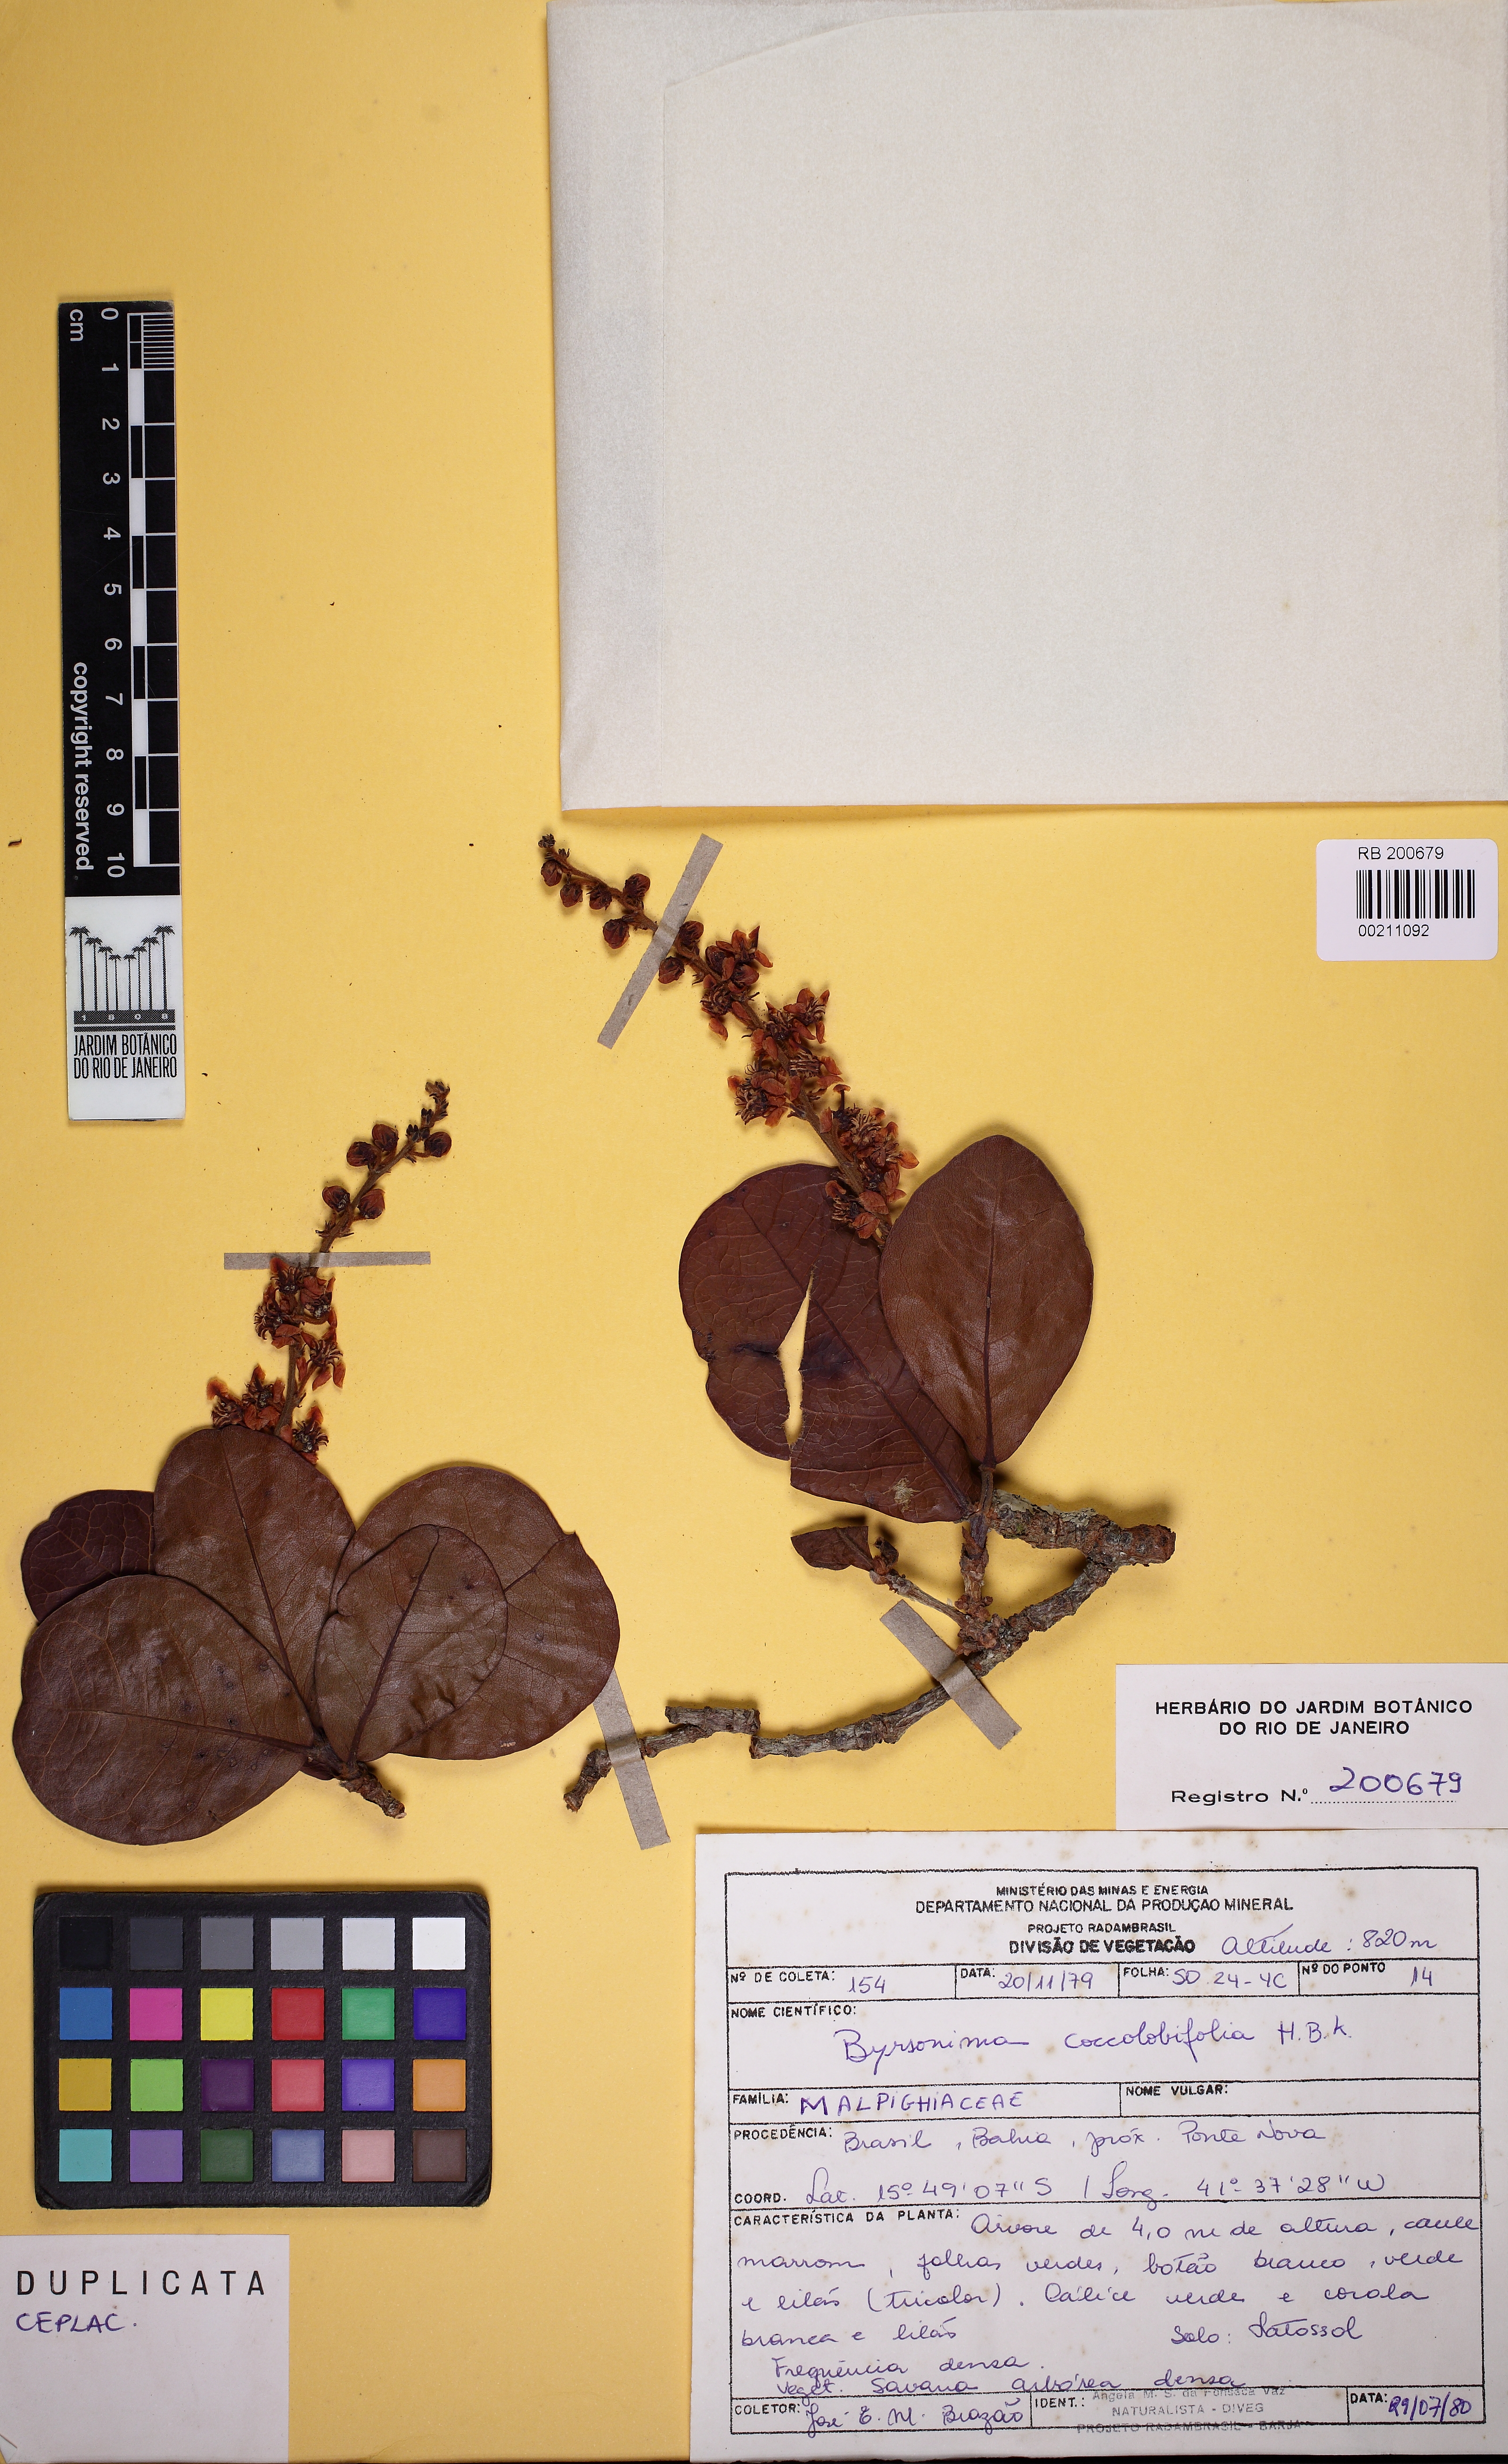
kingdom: Plantae
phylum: Tracheophyta
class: Magnoliopsida
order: Malpighiales
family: Malpighiaceae
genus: Byrsonima
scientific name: Byrsonima coccolobifolia
